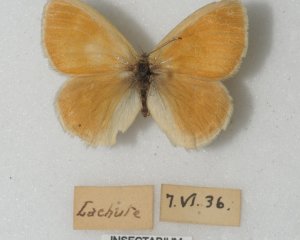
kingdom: Animalia
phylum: Arthropoda
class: Insecta
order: Lepidoptera
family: Nymphalidae
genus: Coenonympha
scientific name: Coenonympha tullia
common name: Large Heath
